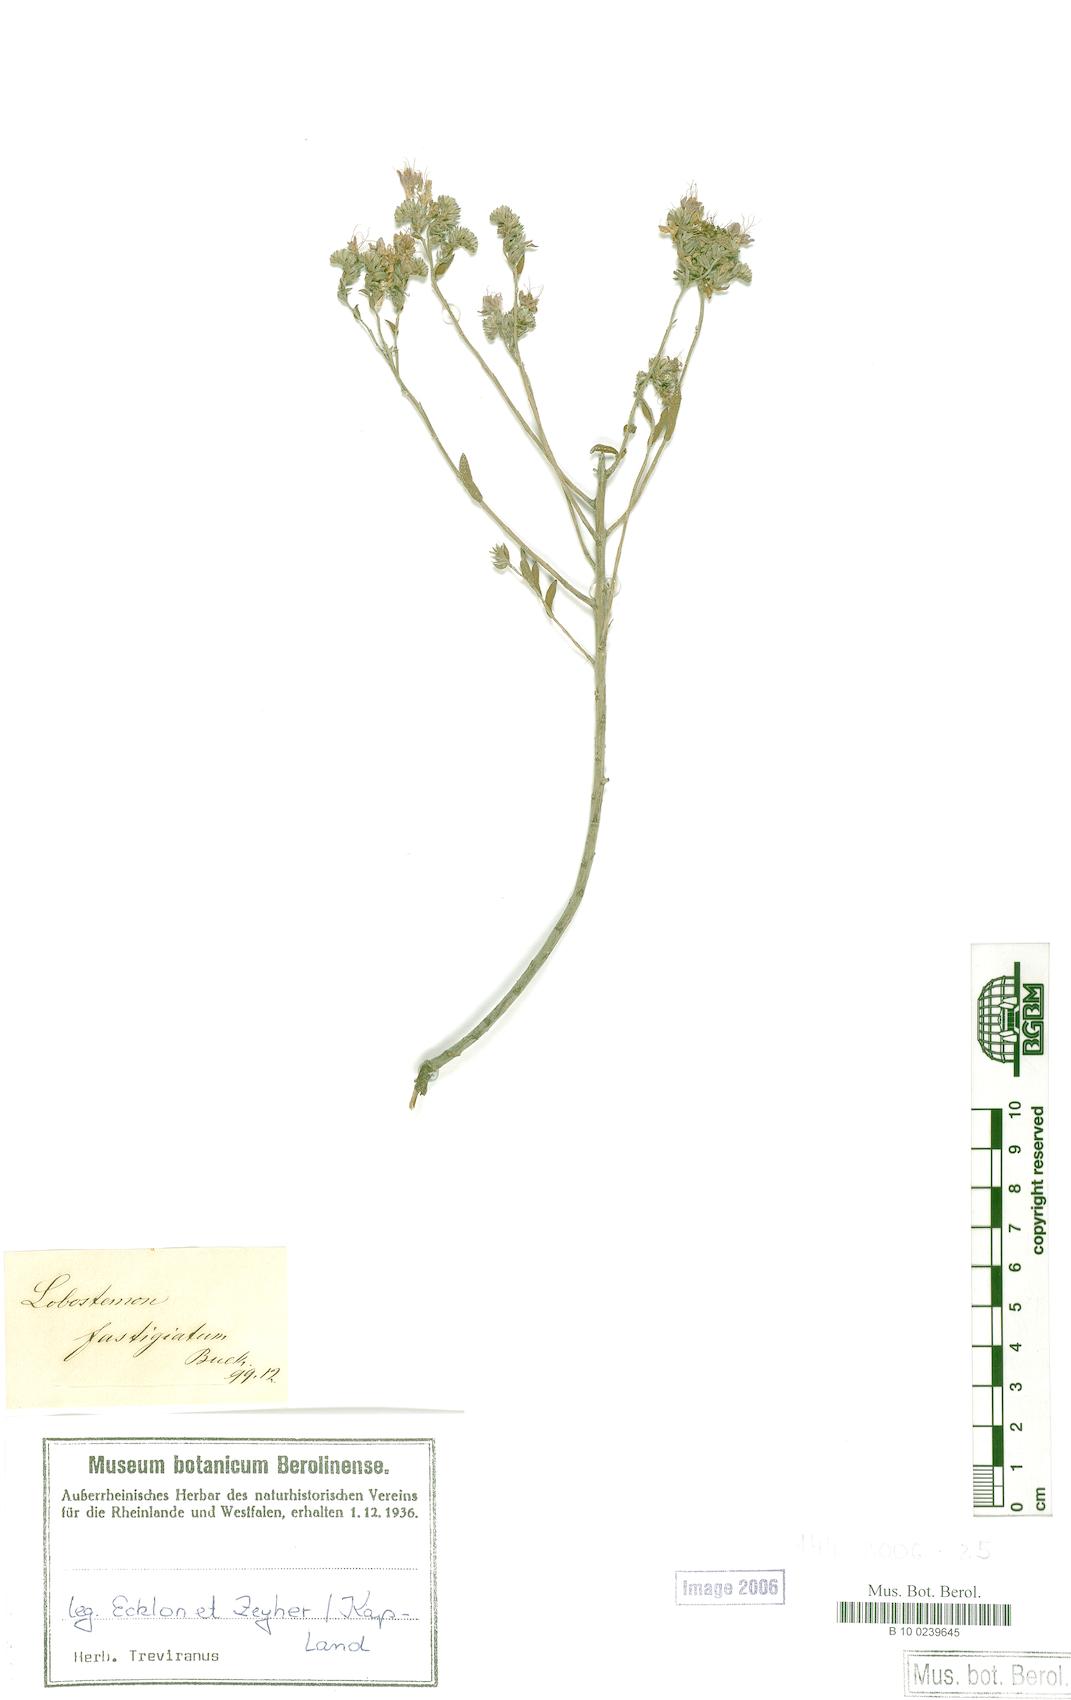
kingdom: Plantae
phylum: Tracheophyta
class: Magnoliopsida
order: Boraginales
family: Boraginaceae
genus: Lobostemon
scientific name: Lobostemon echioides
